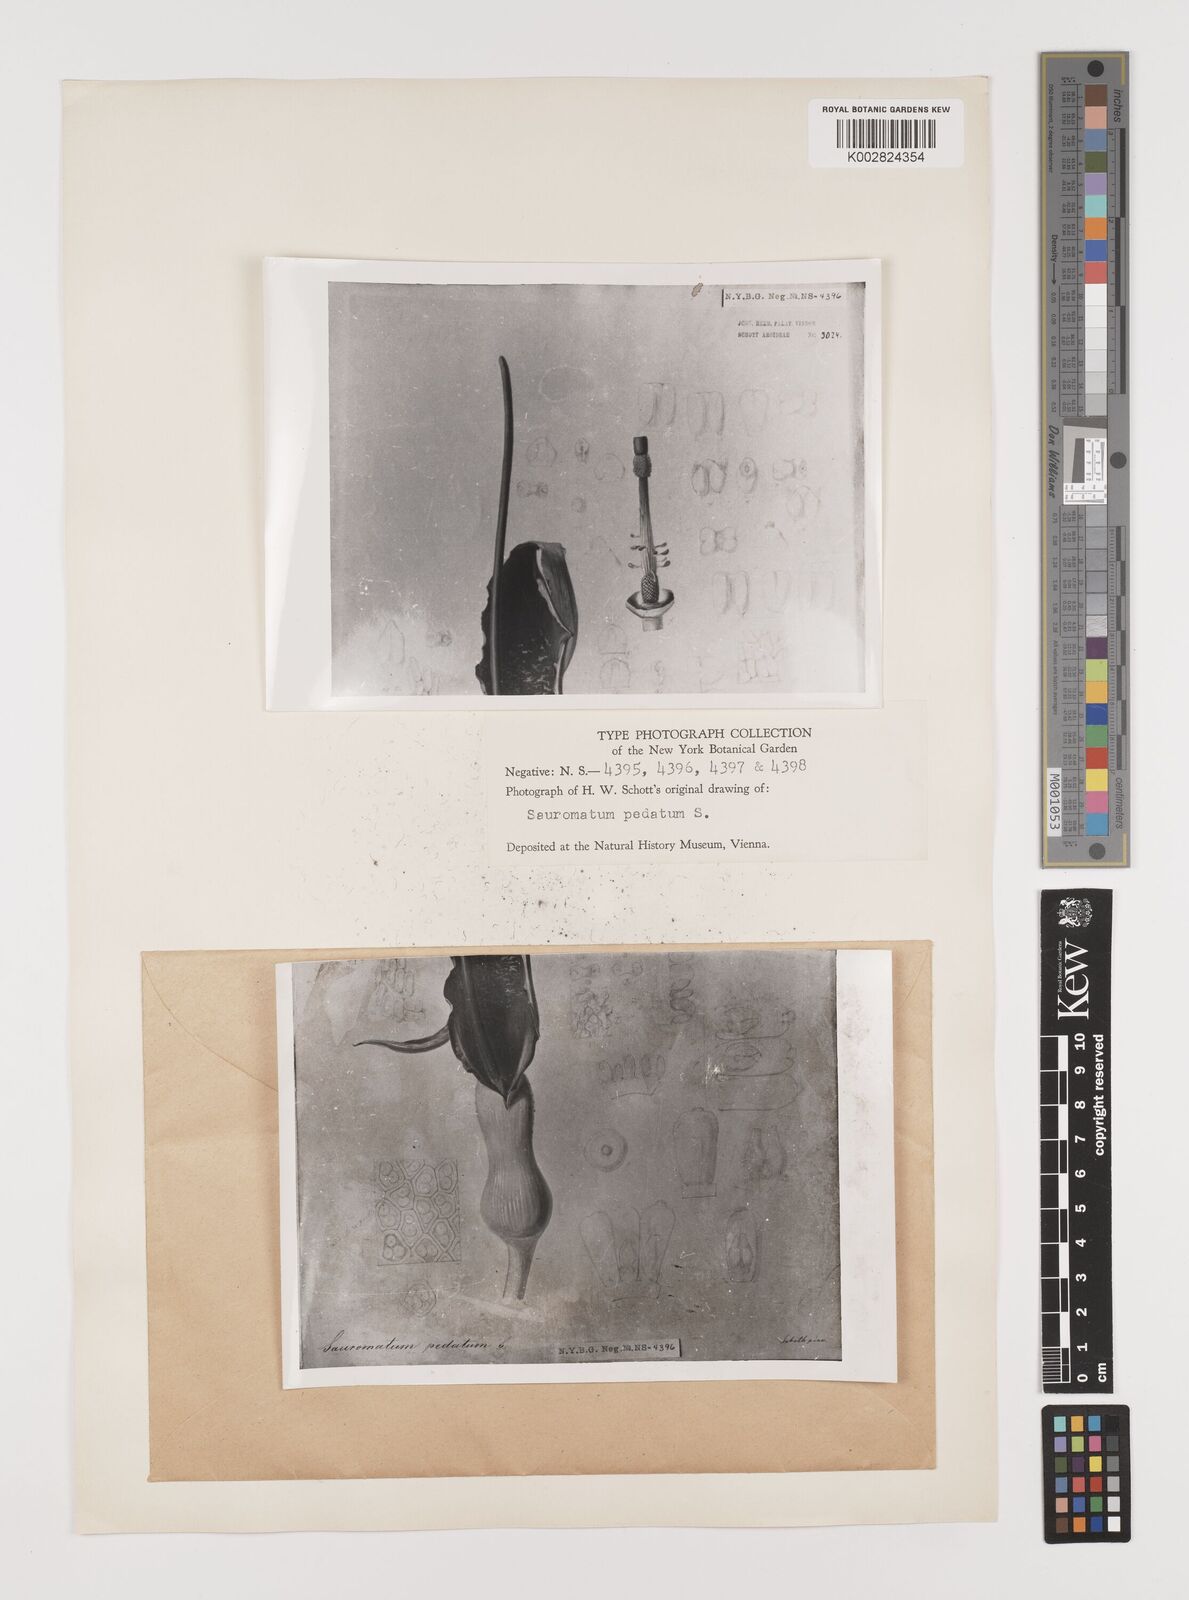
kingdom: Plantae
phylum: Tracheophyta
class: Liliopsida
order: Alismatales
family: Araceae
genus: Sauromatum
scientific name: Sauromatum venosum
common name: Voodoo lily
